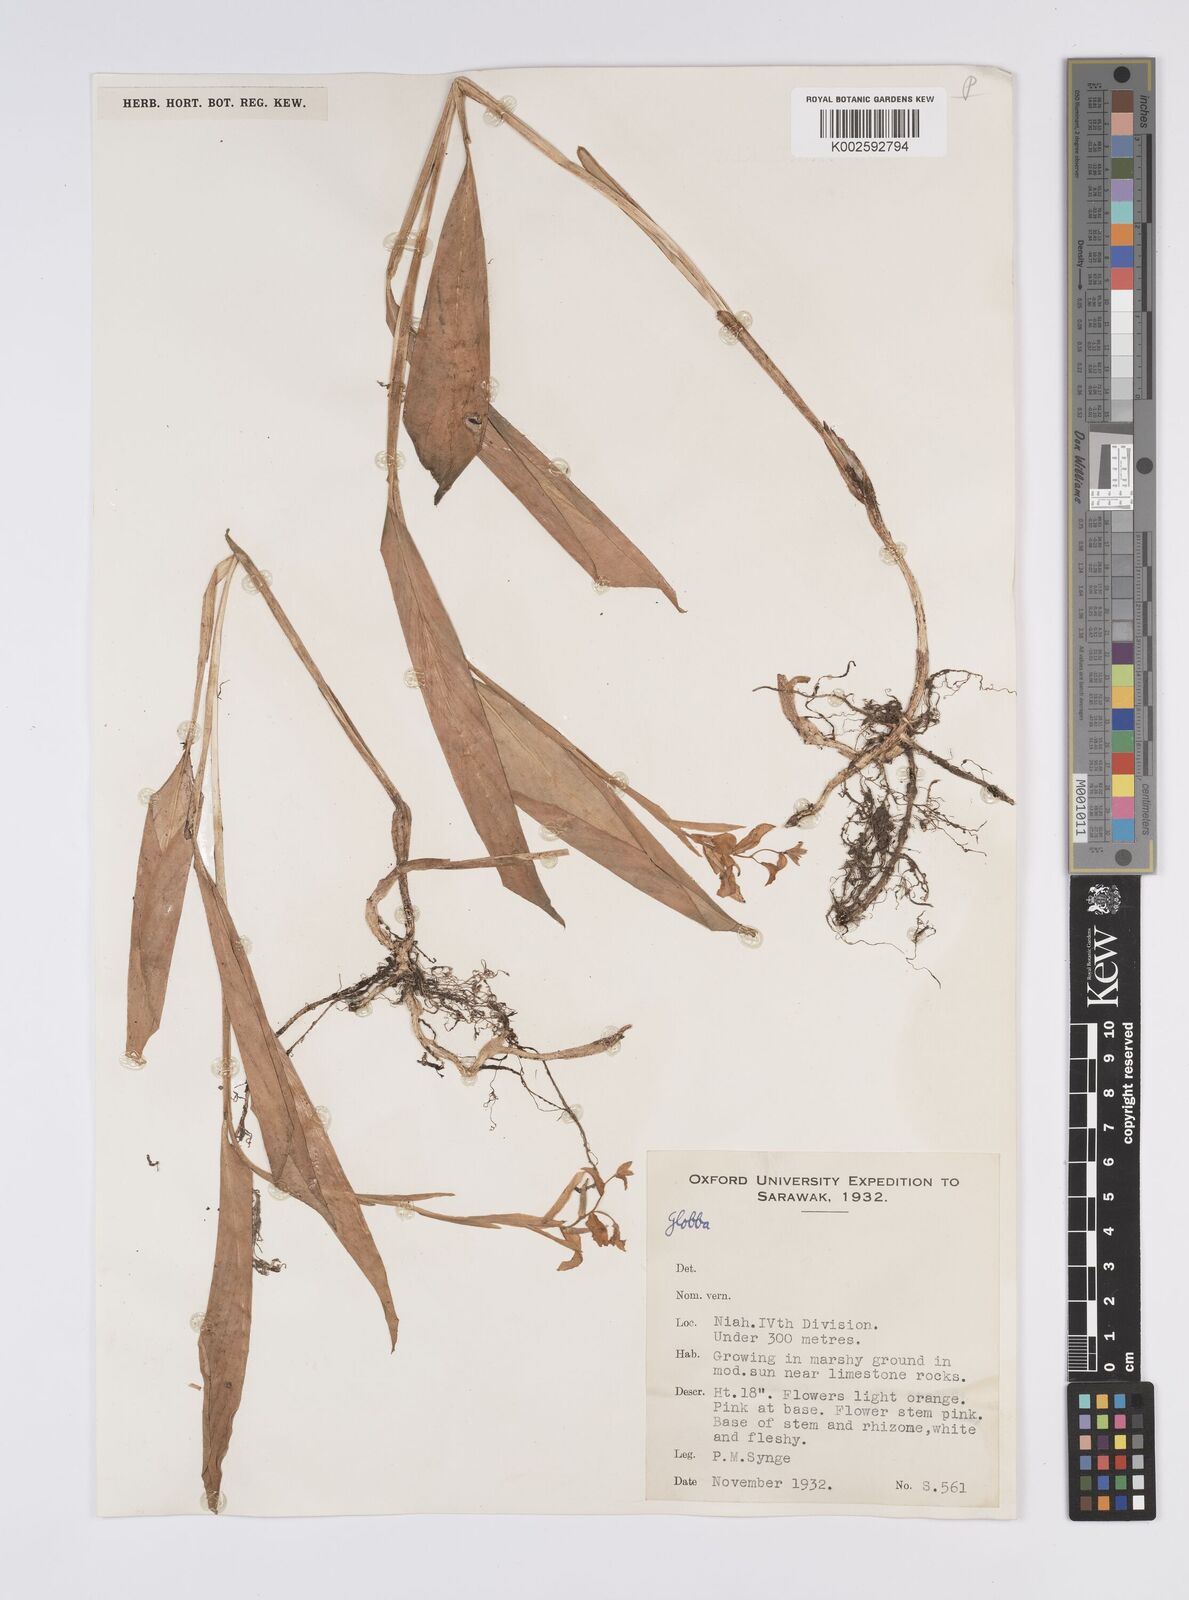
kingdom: Plantae
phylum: Tracheophyta
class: Liliopsida
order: Zingiberales
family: Zingiberaceae
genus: Globba
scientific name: Globba atrosanguinea
